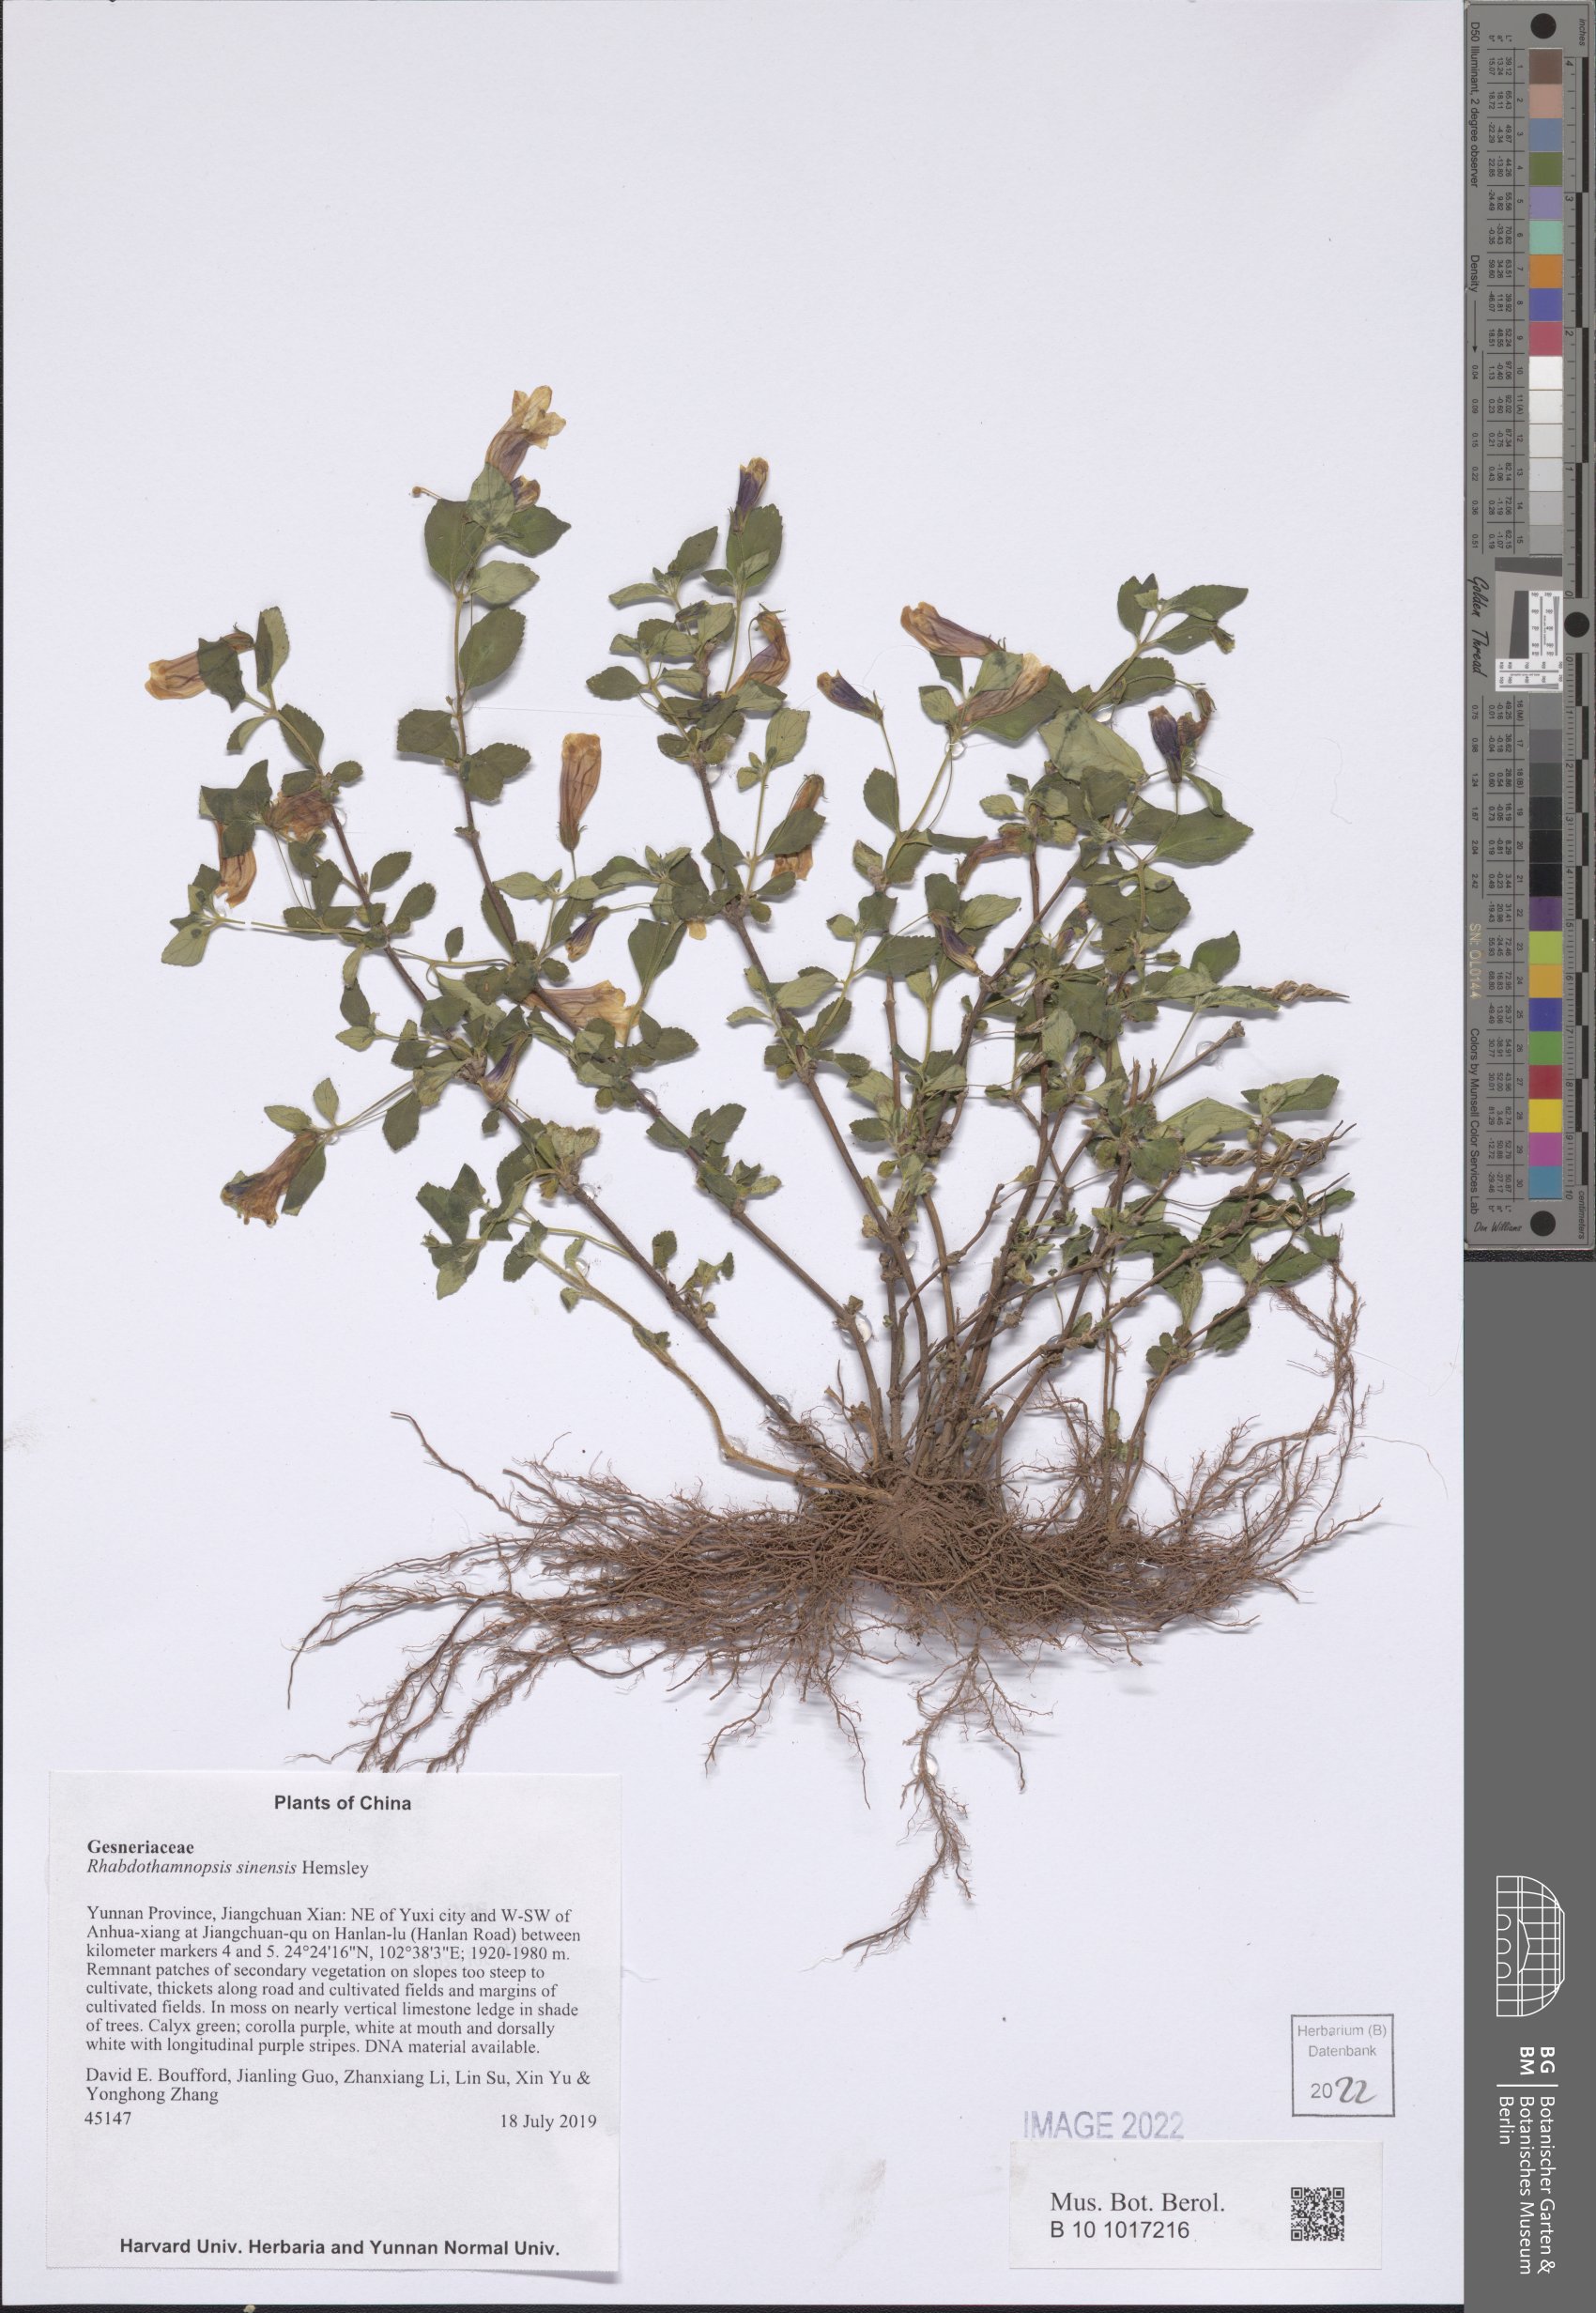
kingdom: Plantae
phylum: Tracheophyta
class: Magnoliopsida
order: Lamiales
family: Gesneriaceae
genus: Rhabdothamnopsis
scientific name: Rhabdothamnopsis sinensis
